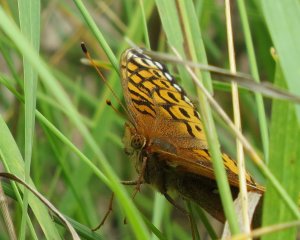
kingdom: Animalia
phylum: Arthropoda
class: Insecta
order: Lepidoptera
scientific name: Lepidoptera
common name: Butterflies
